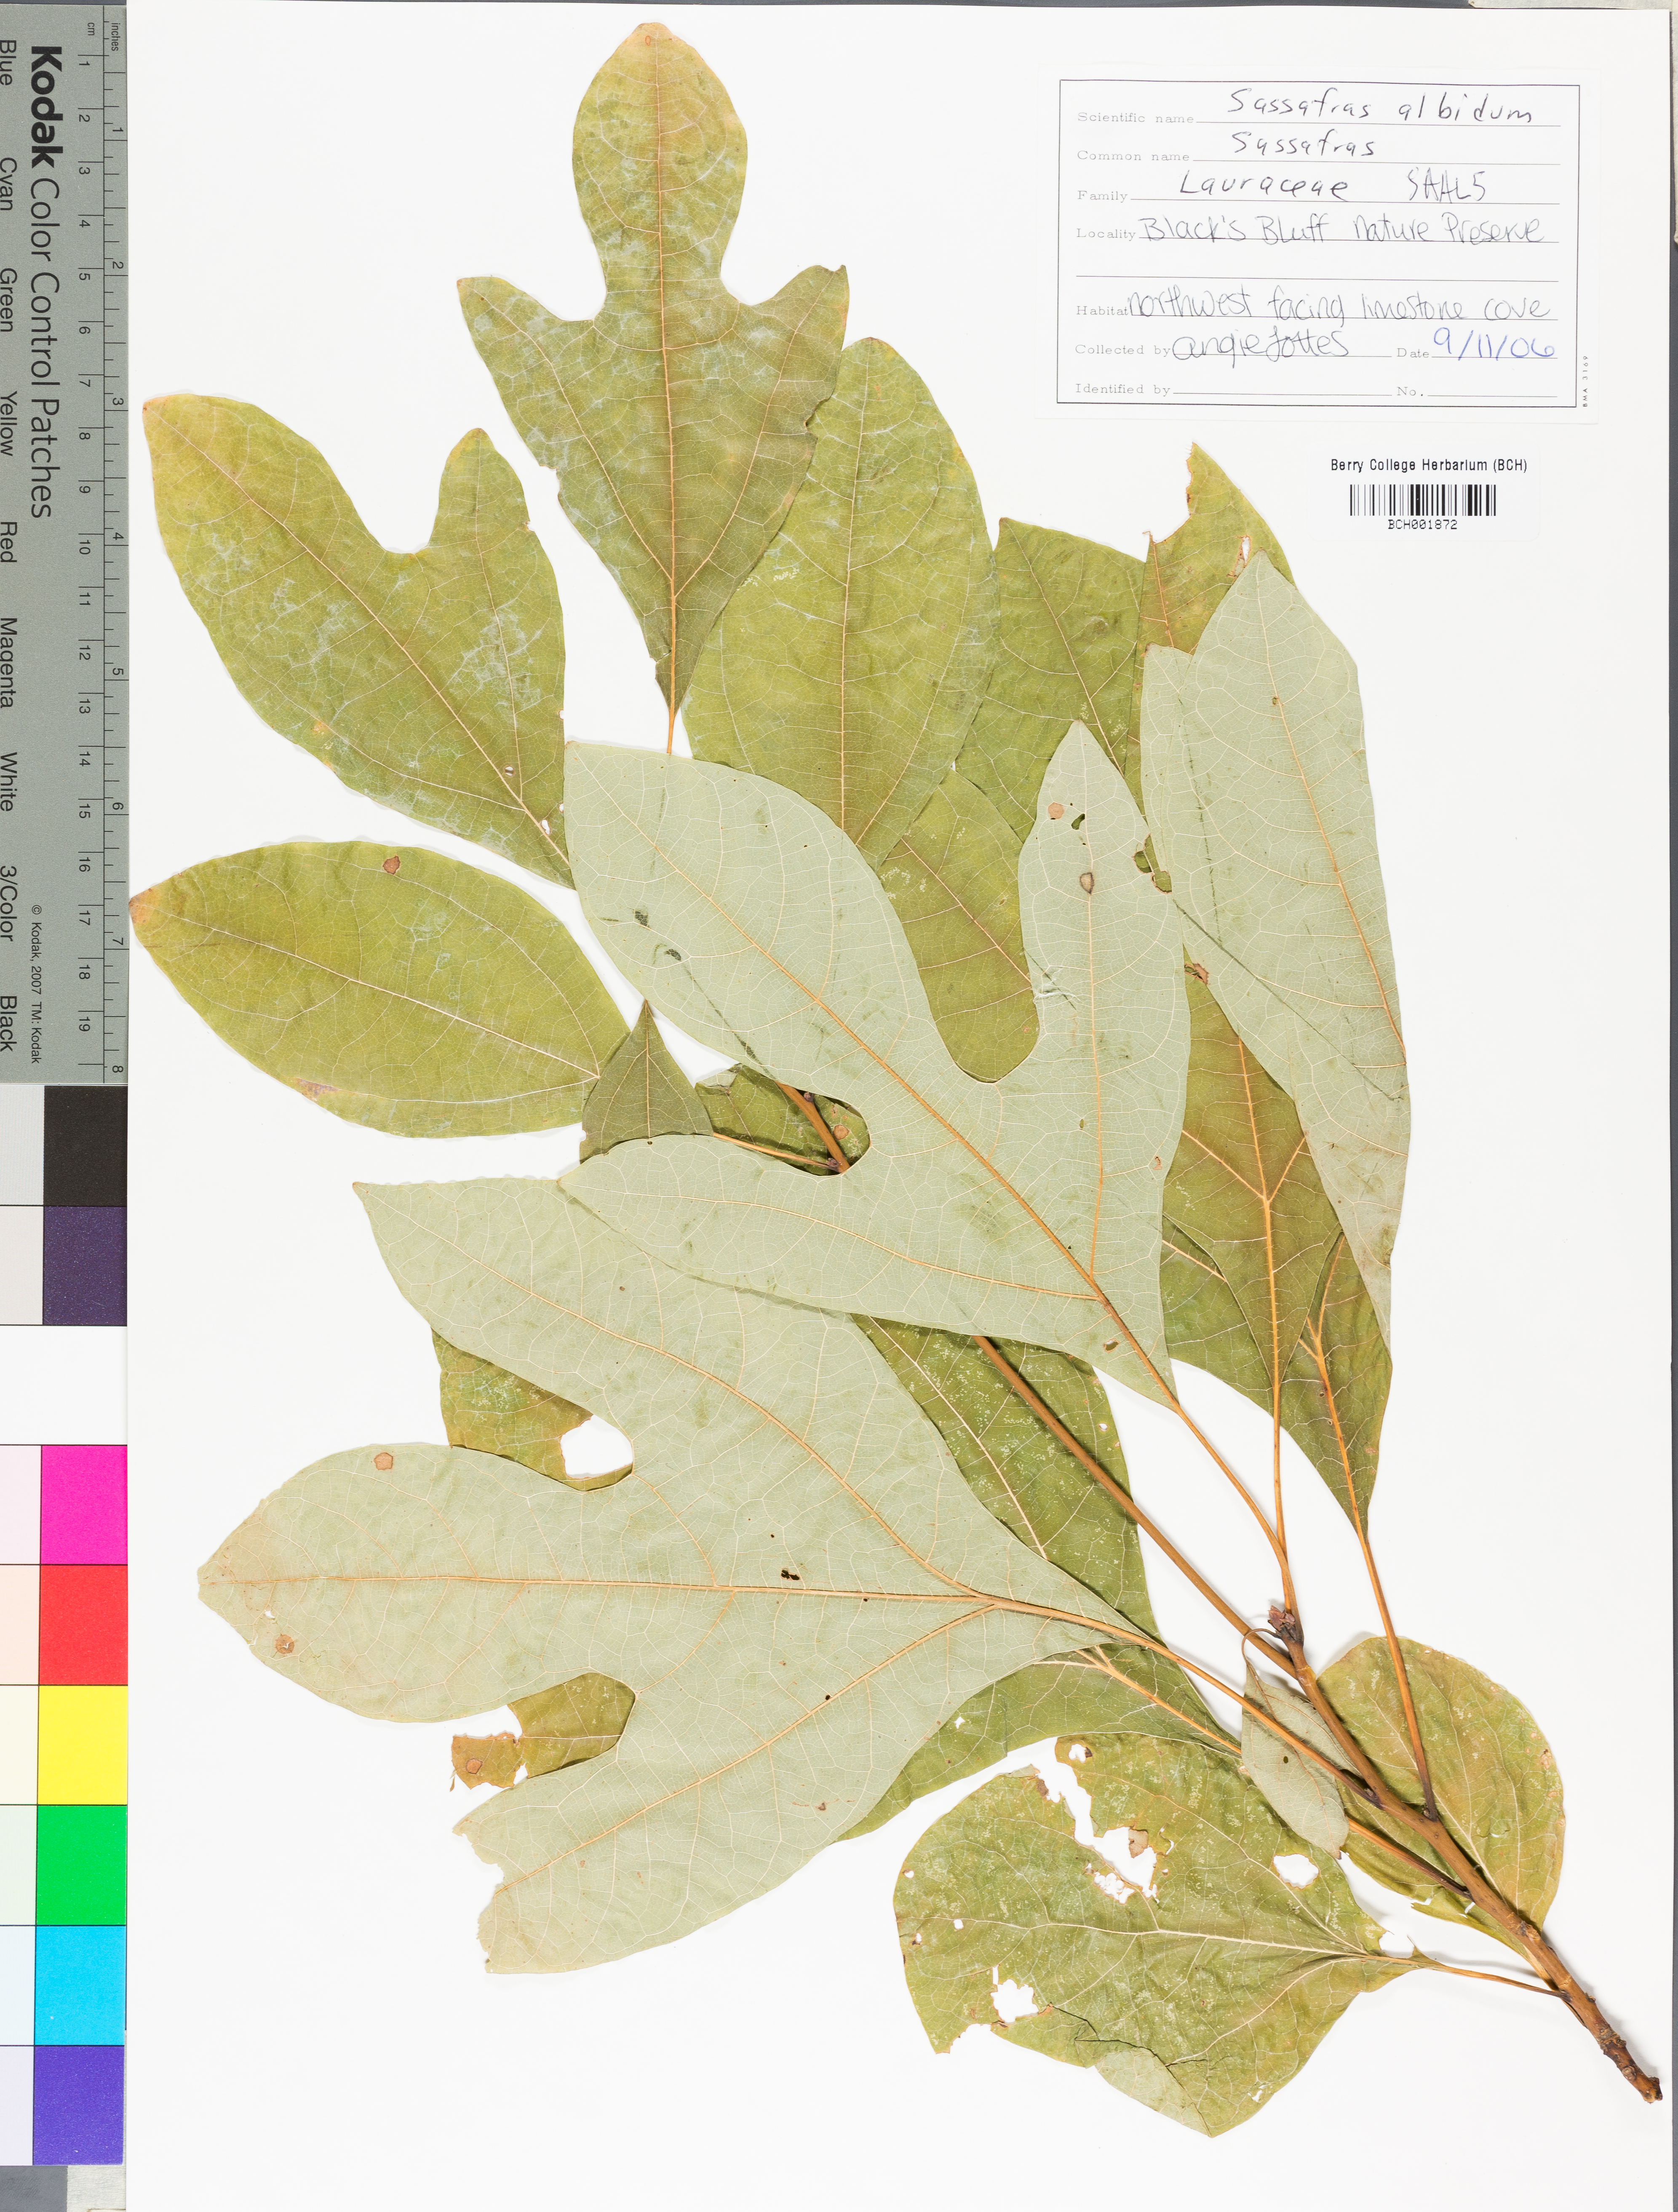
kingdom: Plantae
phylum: Tracheophyta
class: Magnoliopsida
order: Laurales
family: Lauraceae
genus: Sassafras
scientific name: Sassafras albidum
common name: Sassafras
